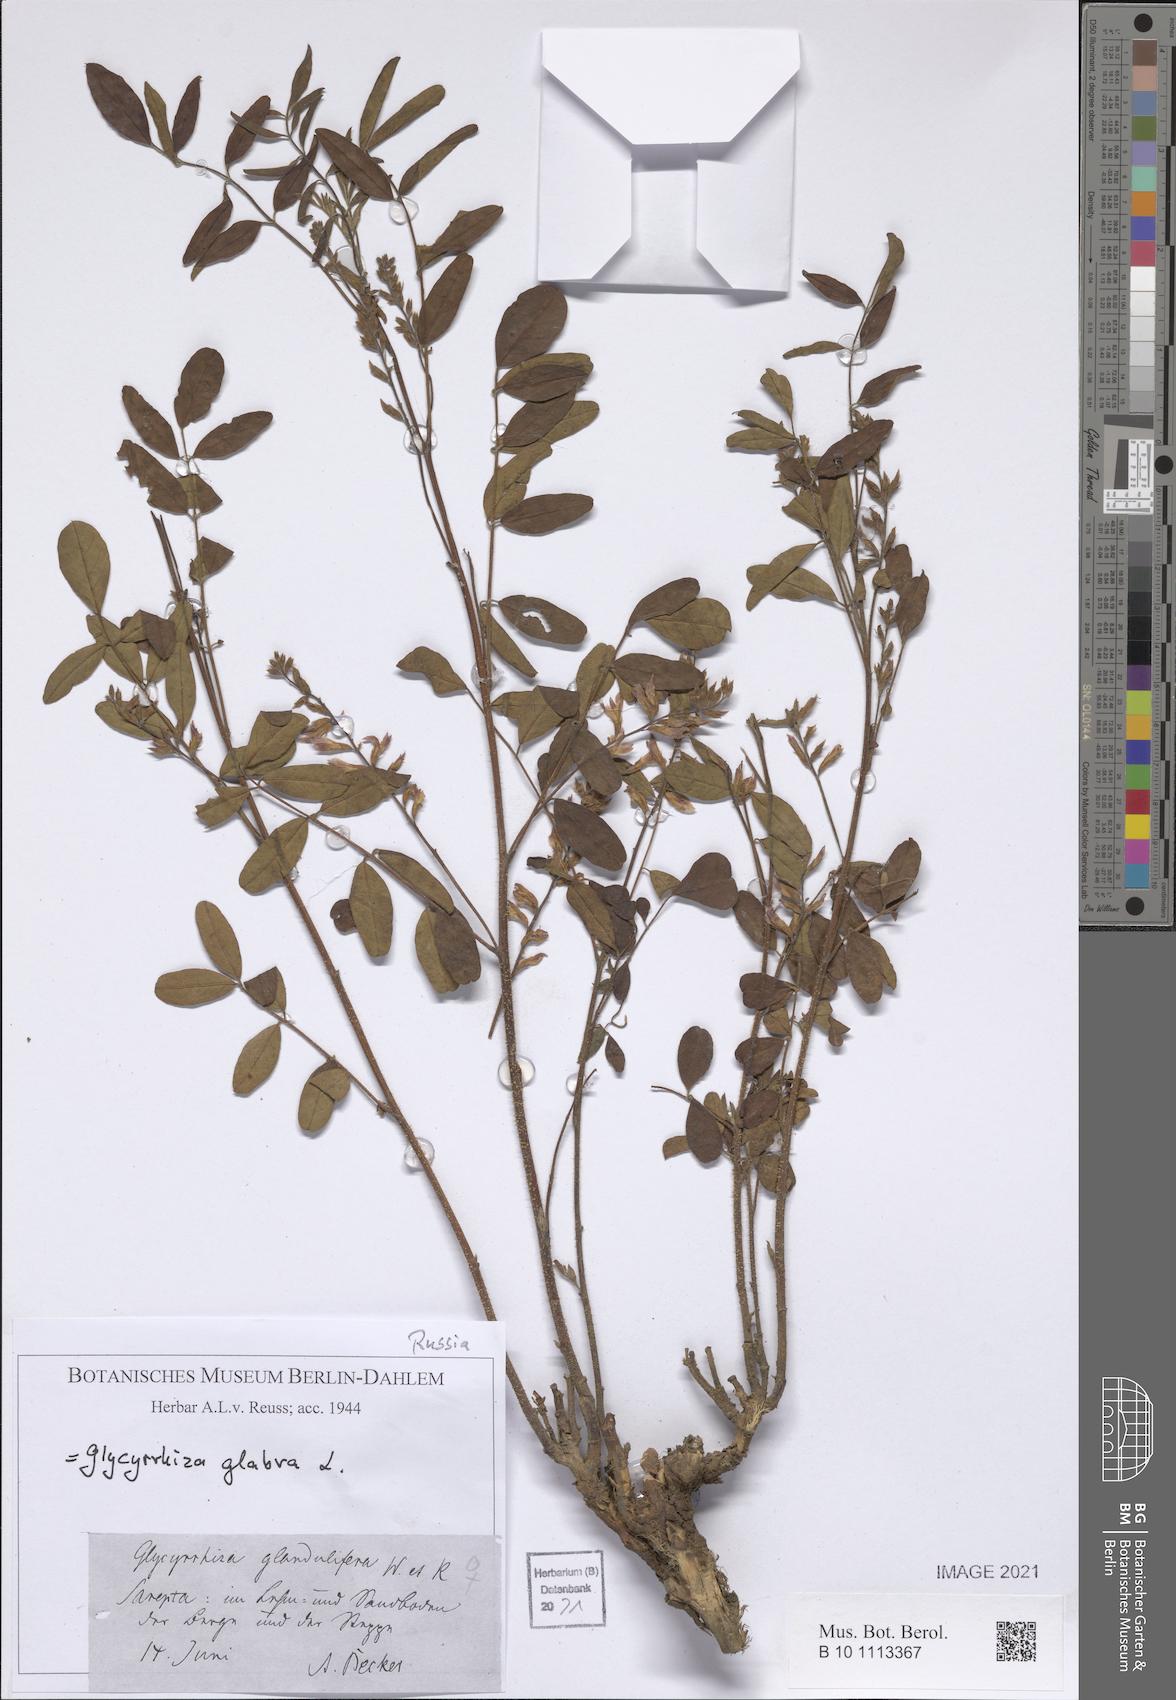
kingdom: Plantae
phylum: Tracheophyta
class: Magnoliopsida
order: Fabales
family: Fabaceae
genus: Glycyrrhiza
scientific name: Glycyrrhiza glabra
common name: Liquorice
